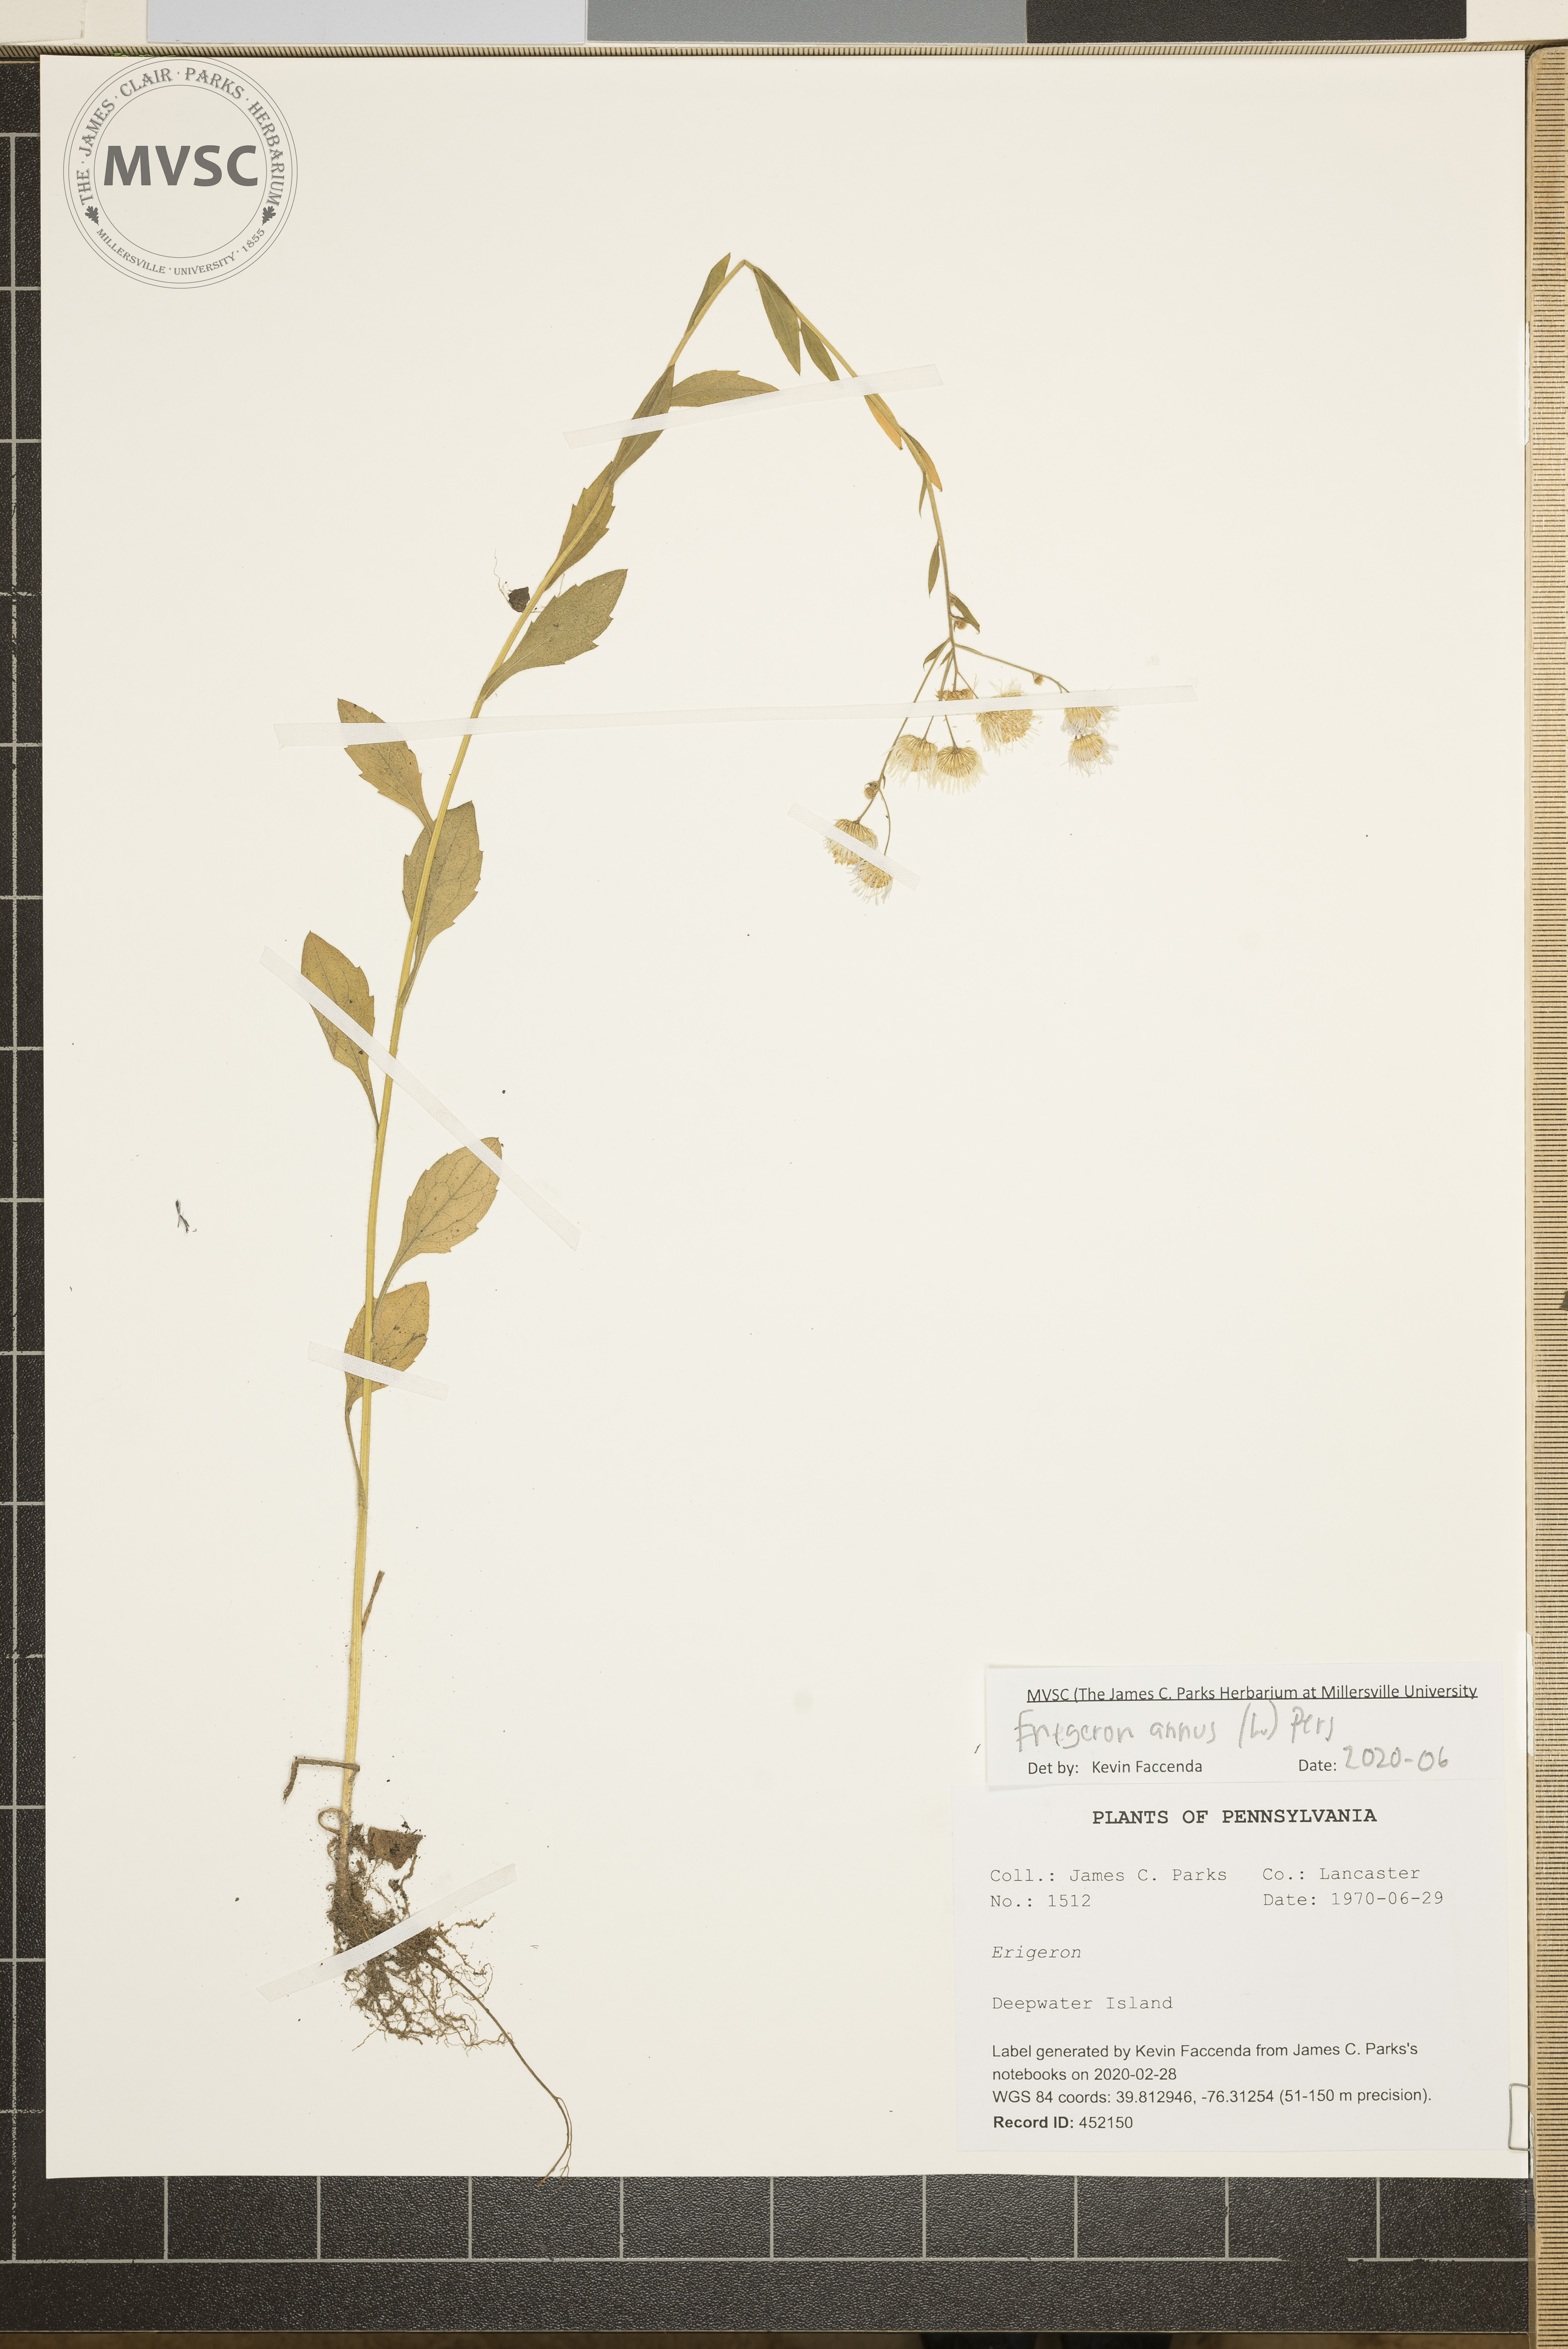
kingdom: Plantae
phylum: Tracheophyta
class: Magnoliopsida
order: Asterales
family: Asteraceae
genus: Erigeron
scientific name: Erigeron annuus
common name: Tall fleabane
